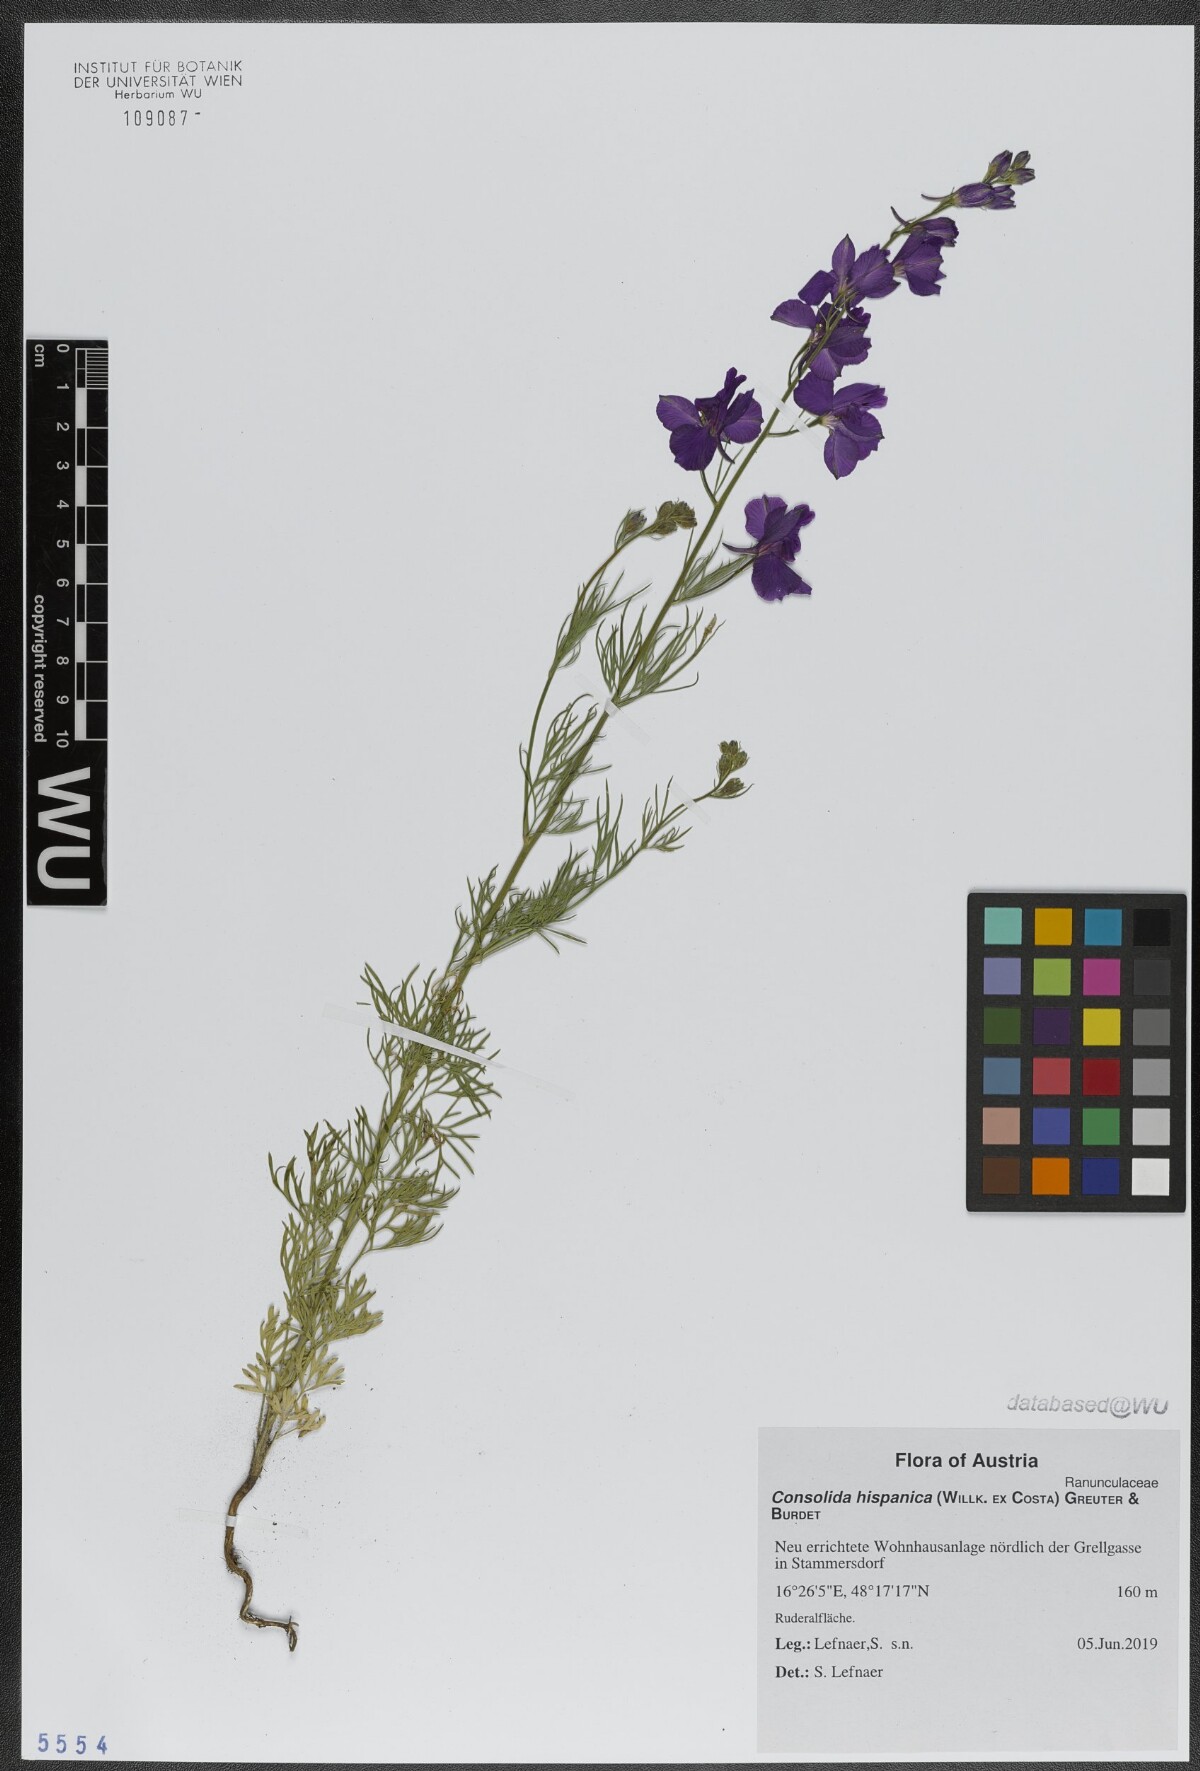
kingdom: Plantae
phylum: Tracheophyta
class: Magnoliopsida
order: Ranunculales
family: Ranunculaceae
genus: Delphinium
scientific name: Delphinium hispanicum
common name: Oriental knight's-spur
